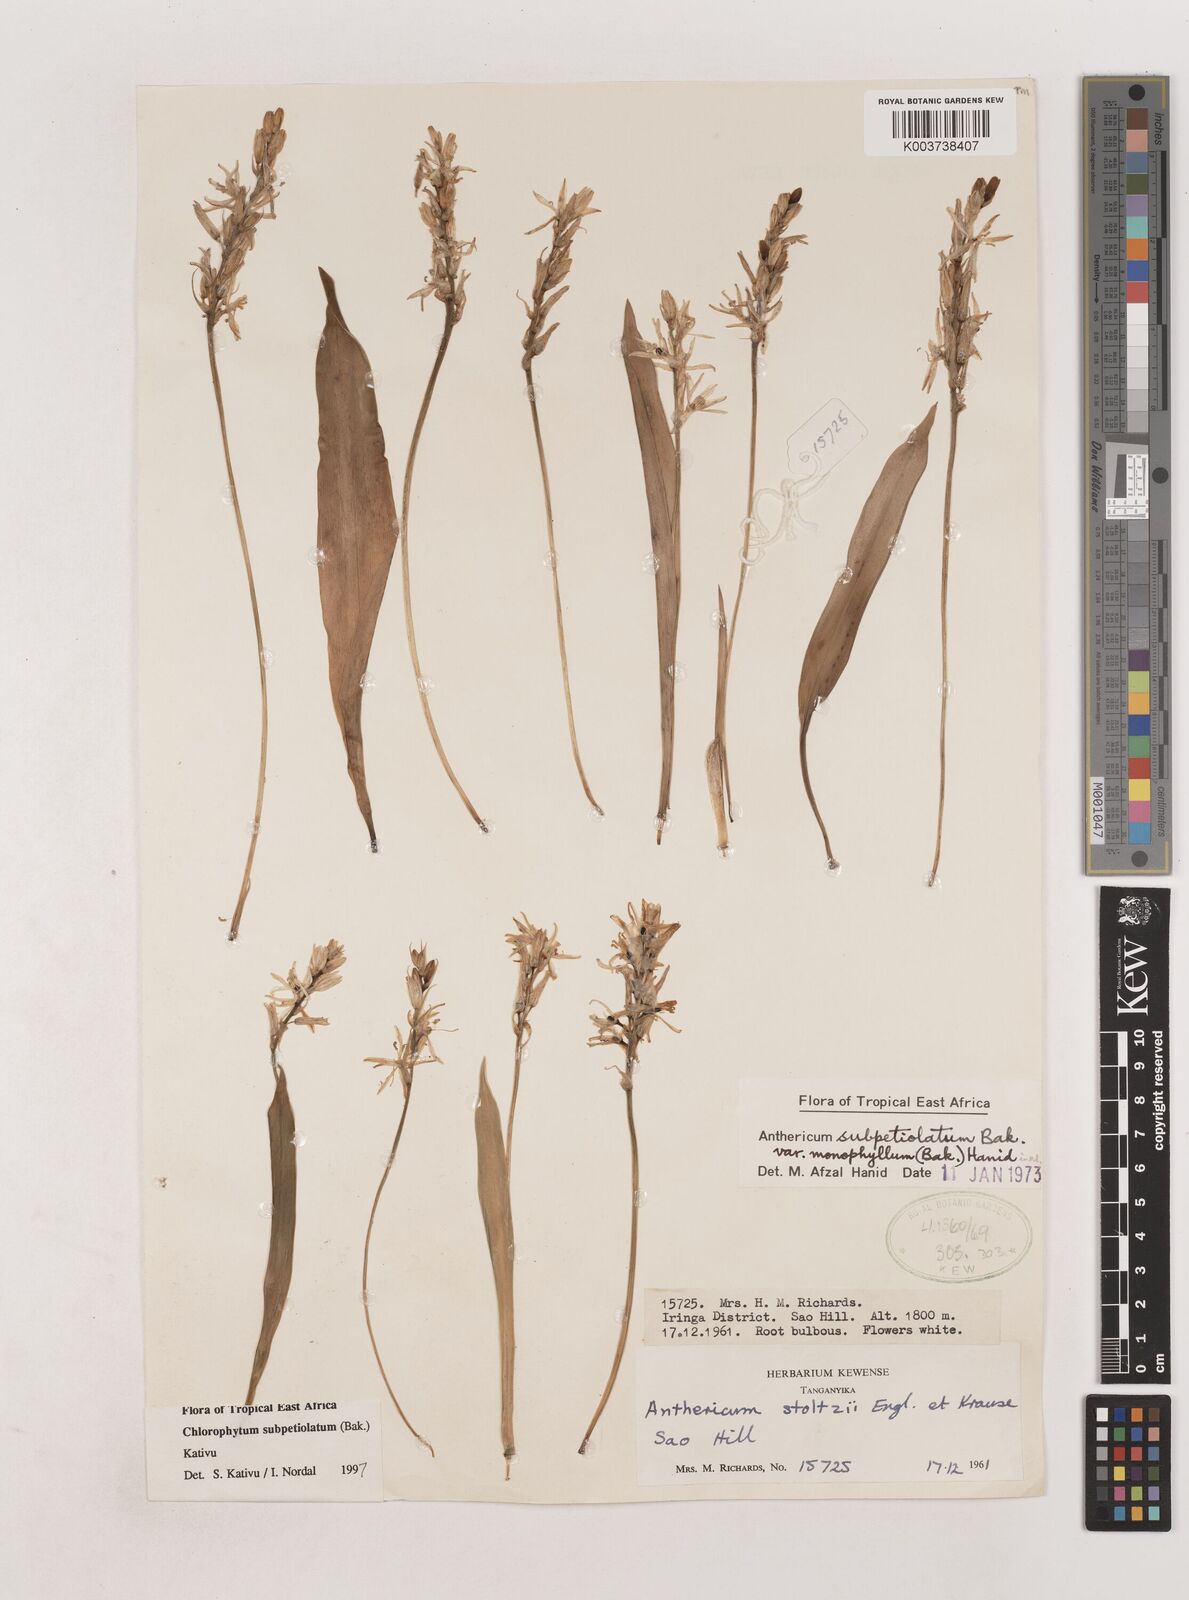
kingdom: Plantae
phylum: Tracheophyta
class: Liliopsida
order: Asparagales
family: Asparagaceae
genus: Chlorophytum
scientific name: Chlorophytum subpetiolatum
